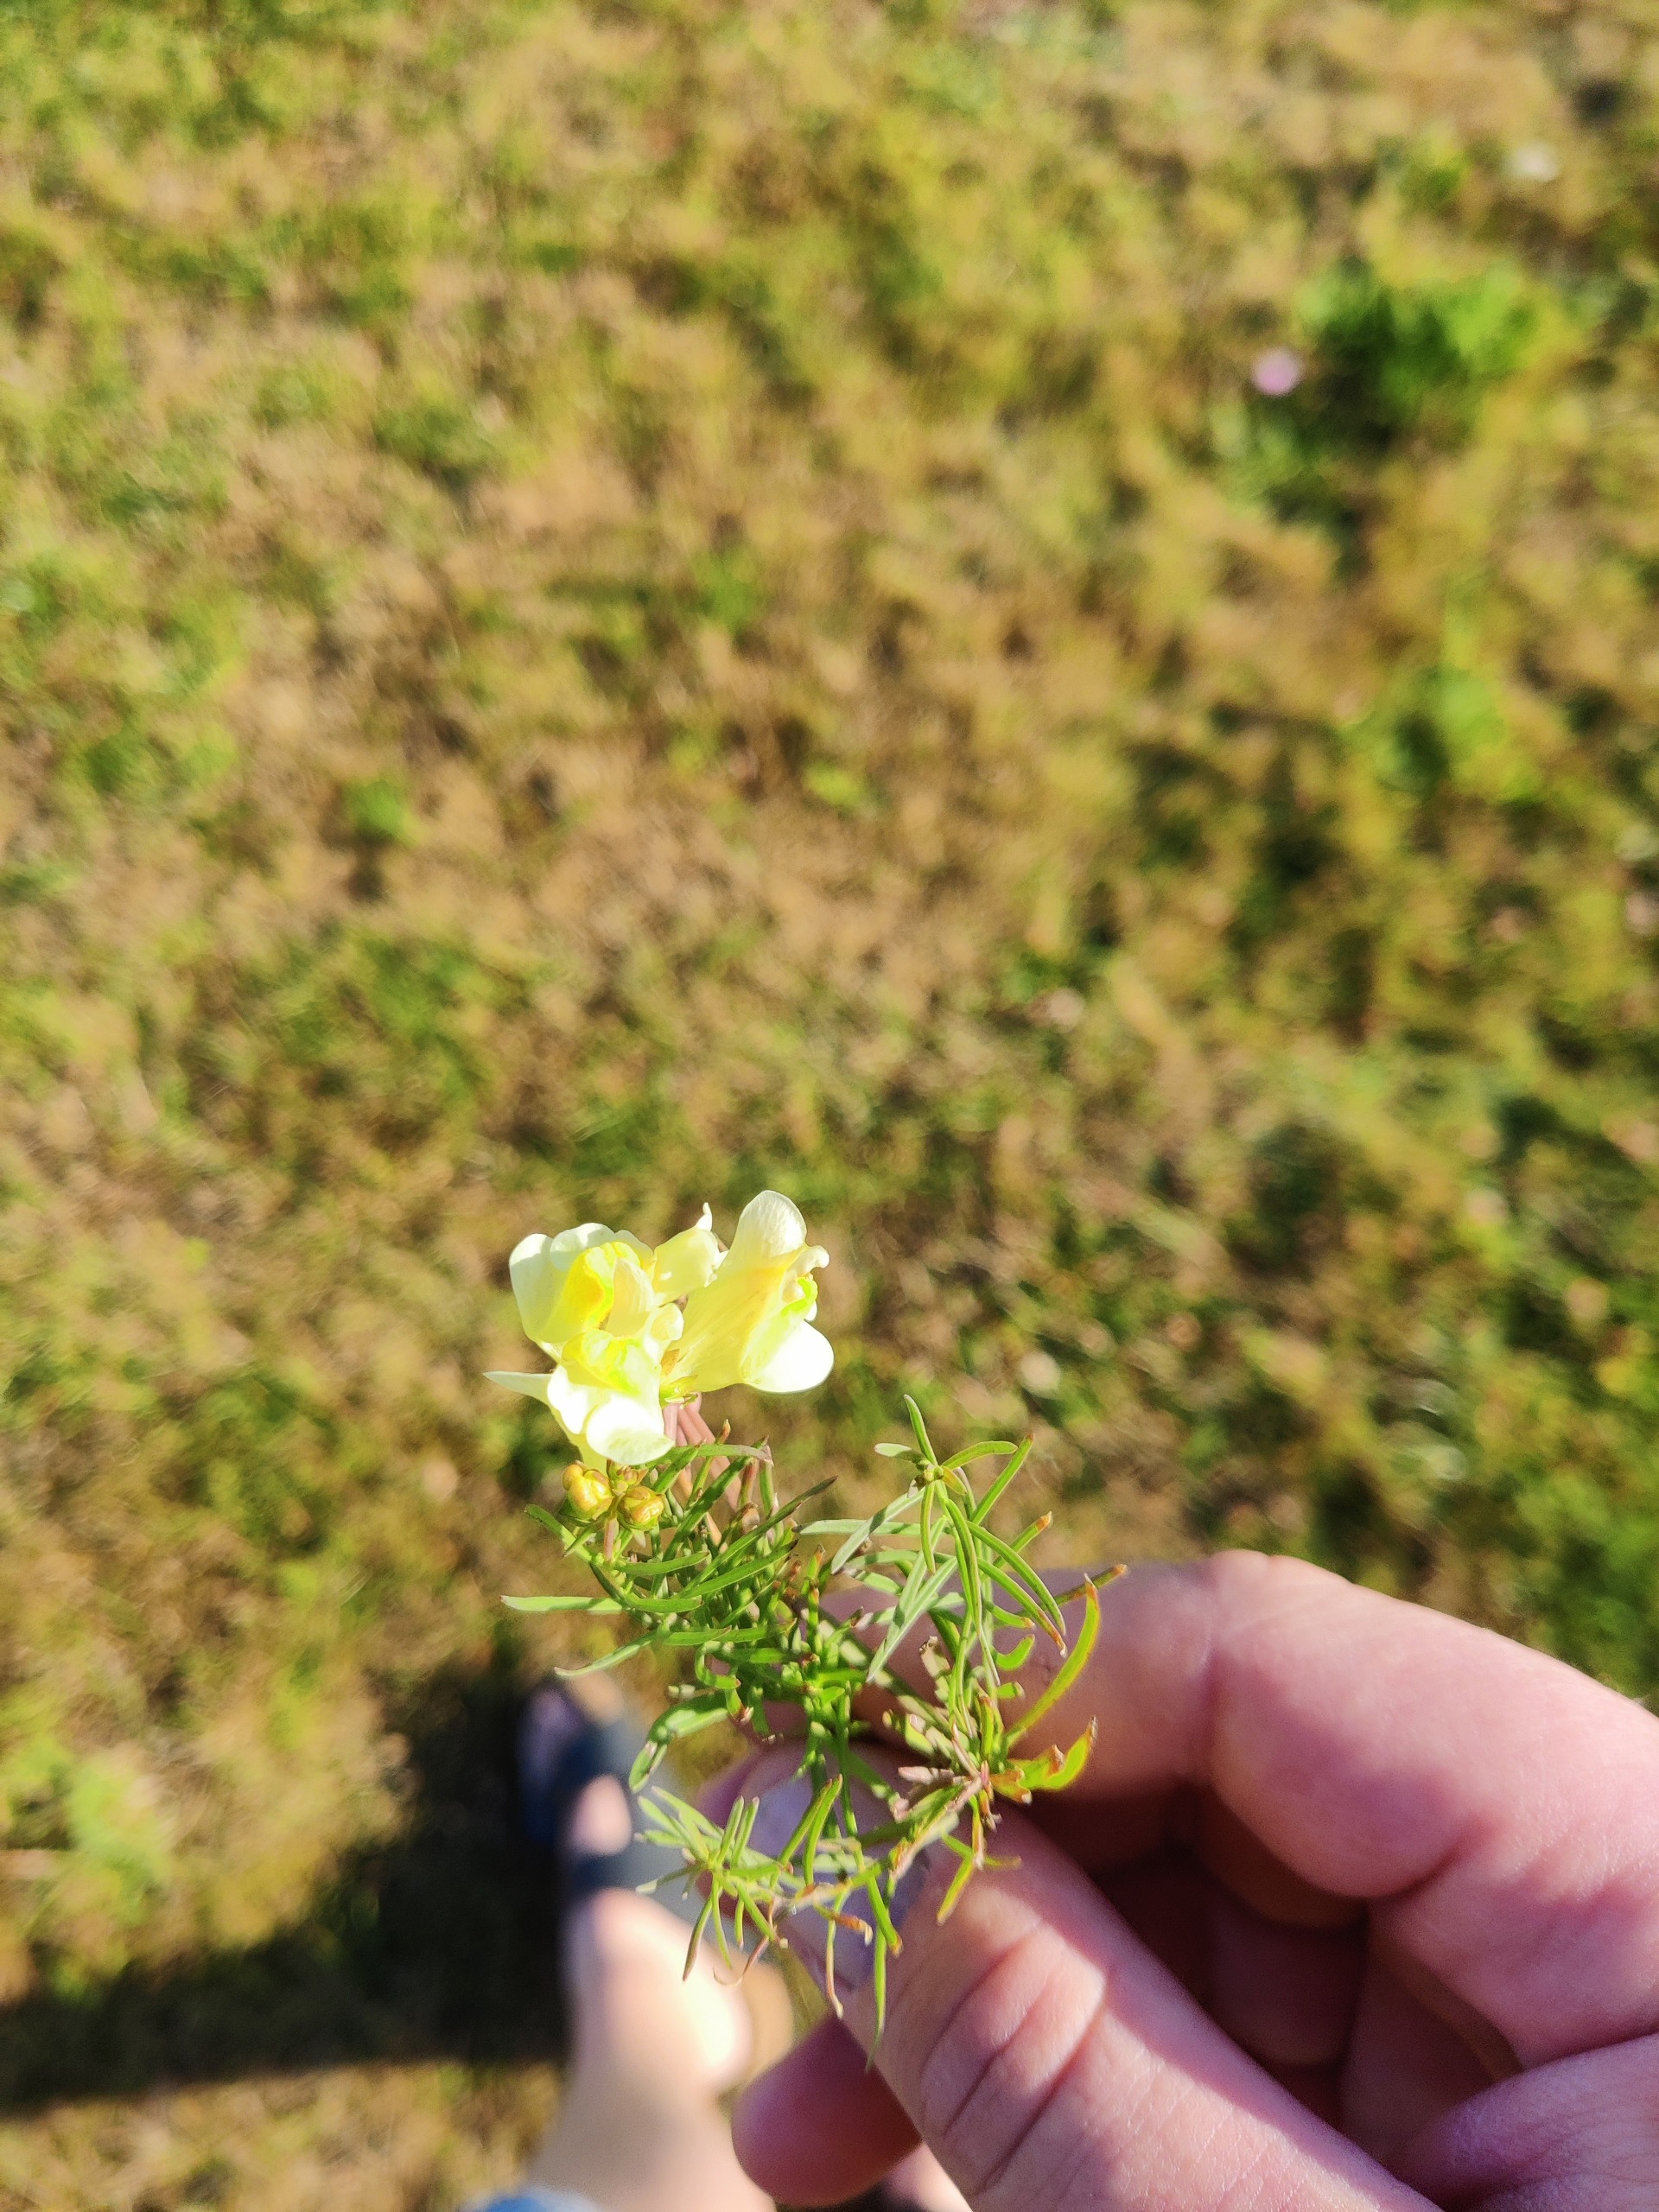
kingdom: Plantae
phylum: Tracheophyta
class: Magnoliopsida
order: Lamiales
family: Plantaginaceae
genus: Linaria
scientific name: Linaria vulgaris
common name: Almindelig torskemund
